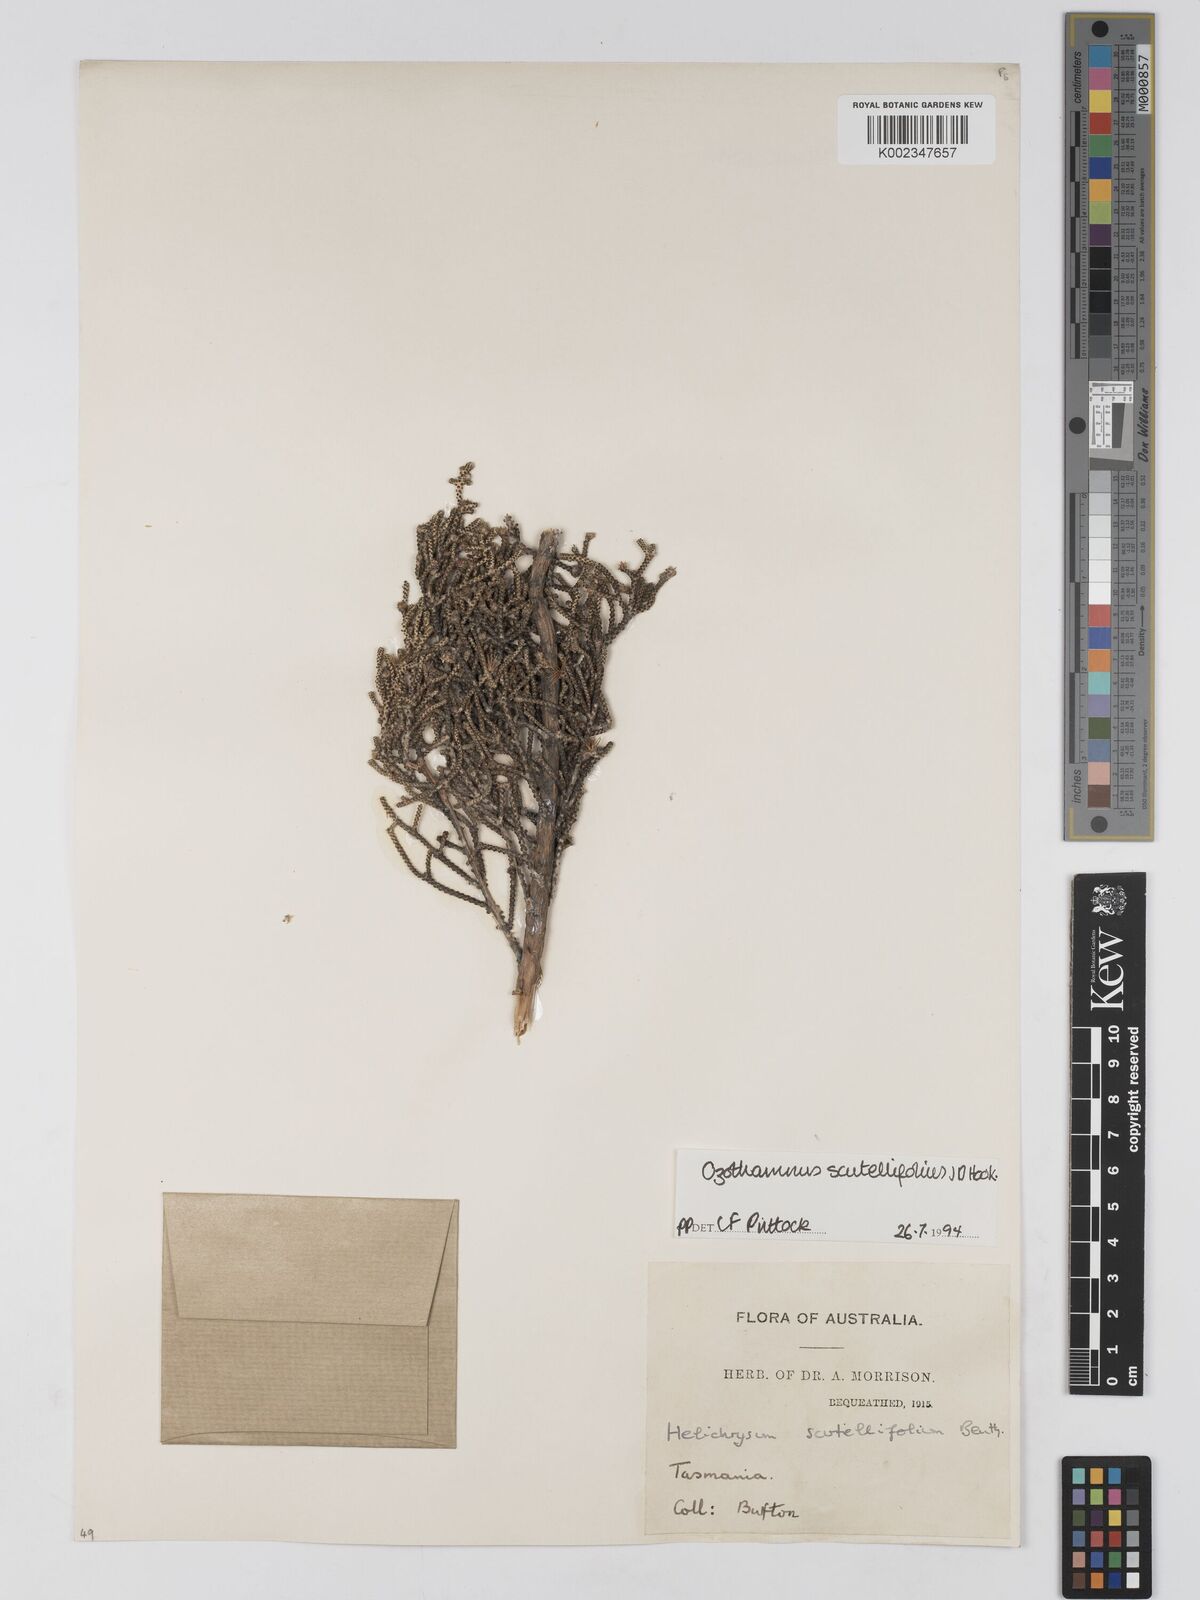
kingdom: Plantae
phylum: Tracheophyta
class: Magnoliopsida
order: Asterales
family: Asteraceae
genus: Ozothamnus
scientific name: Ozothamnus scutellifolius
